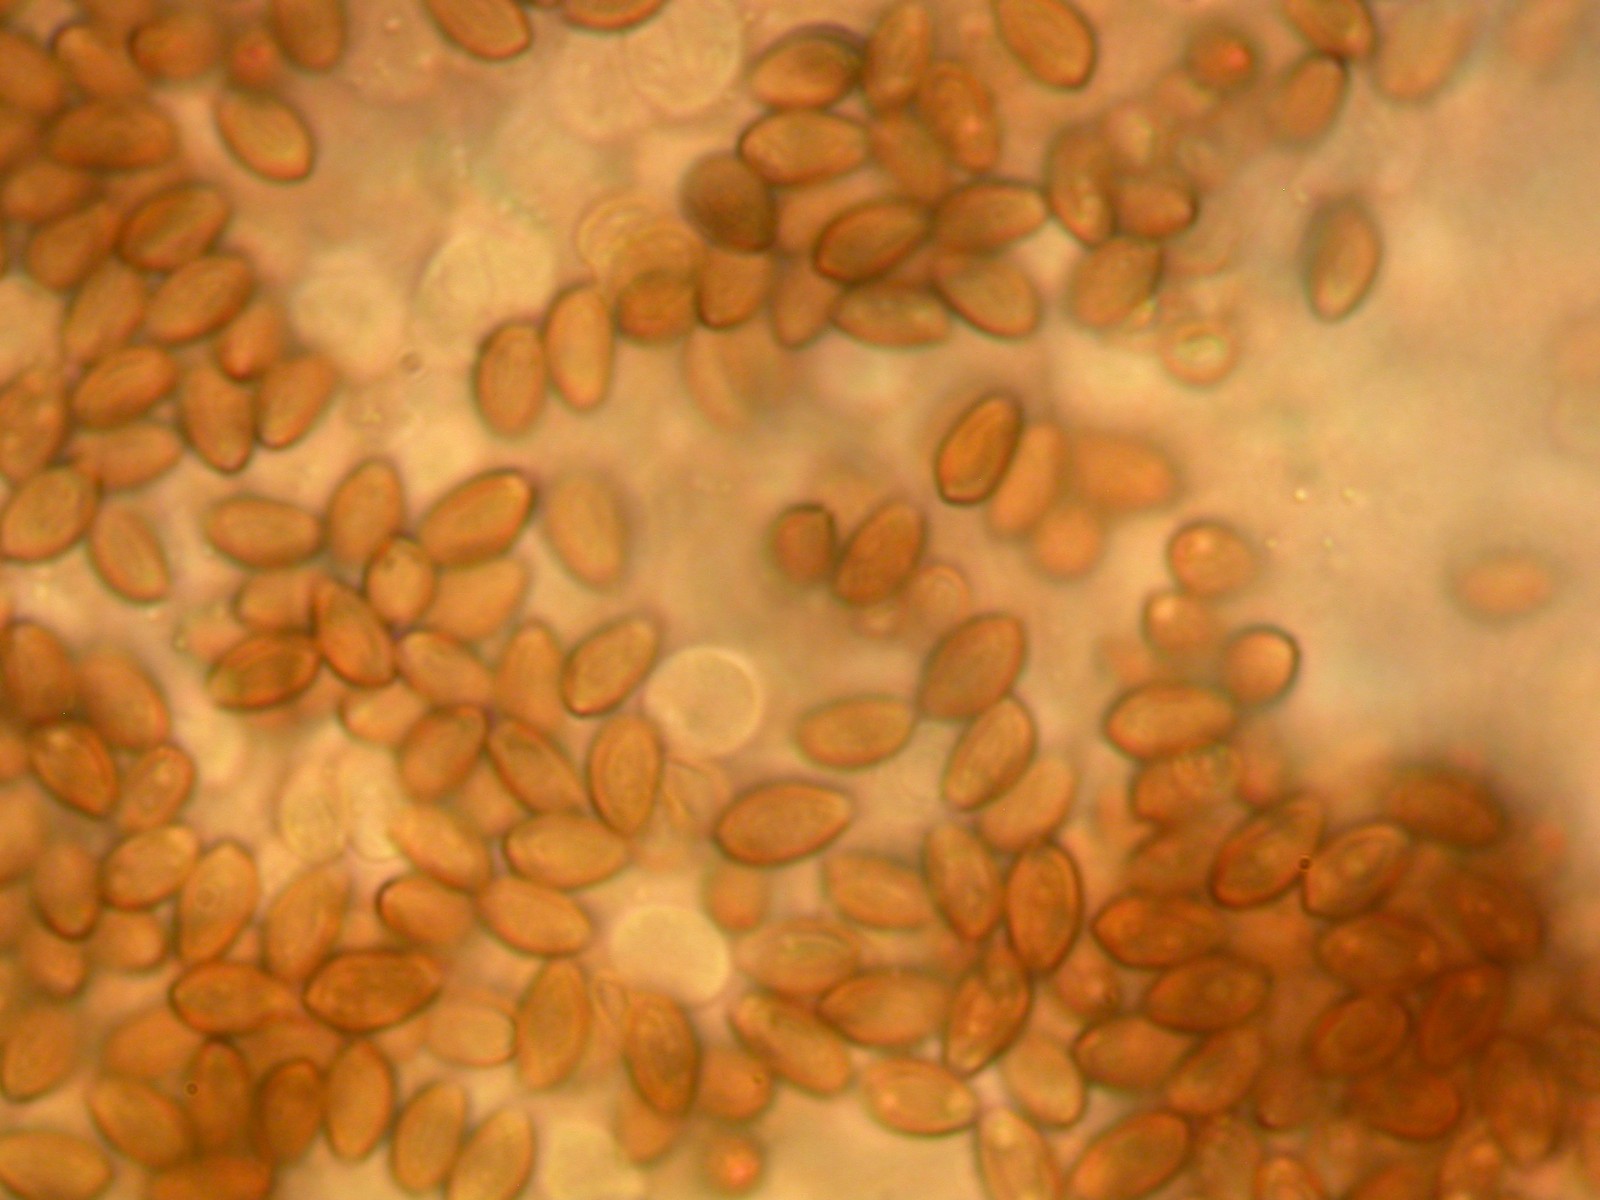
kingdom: Fungi
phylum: Basidiomycota
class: Agaricomycetes
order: Agaricales
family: Strophariaceae
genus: Deconica
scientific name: Deconica montana
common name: rødbrun stråhat
